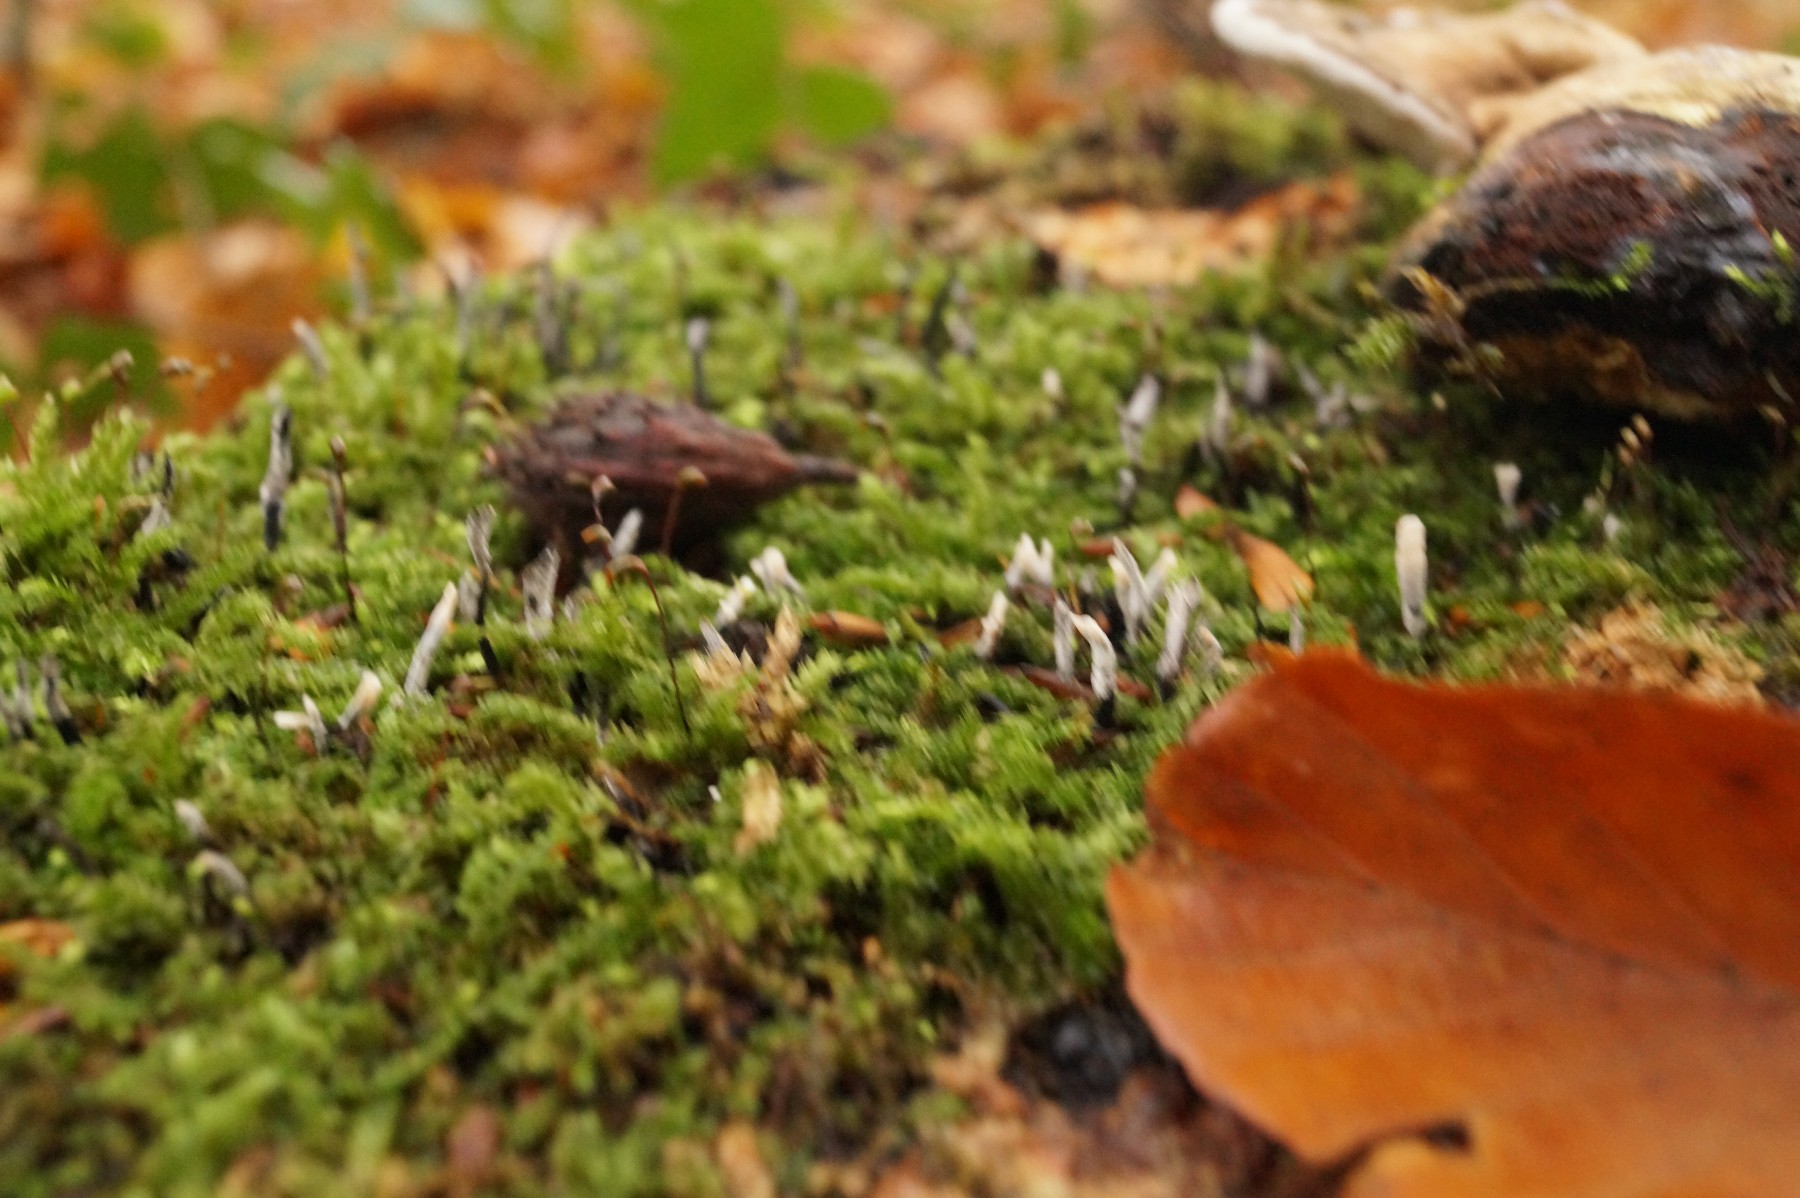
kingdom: Fungi
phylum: Ascomycota
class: Sordariomycetes
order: Xylariales
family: Xylariaceae
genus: Xylaria
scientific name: Xylaria hypoxylon
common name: grenet stødsvamp
